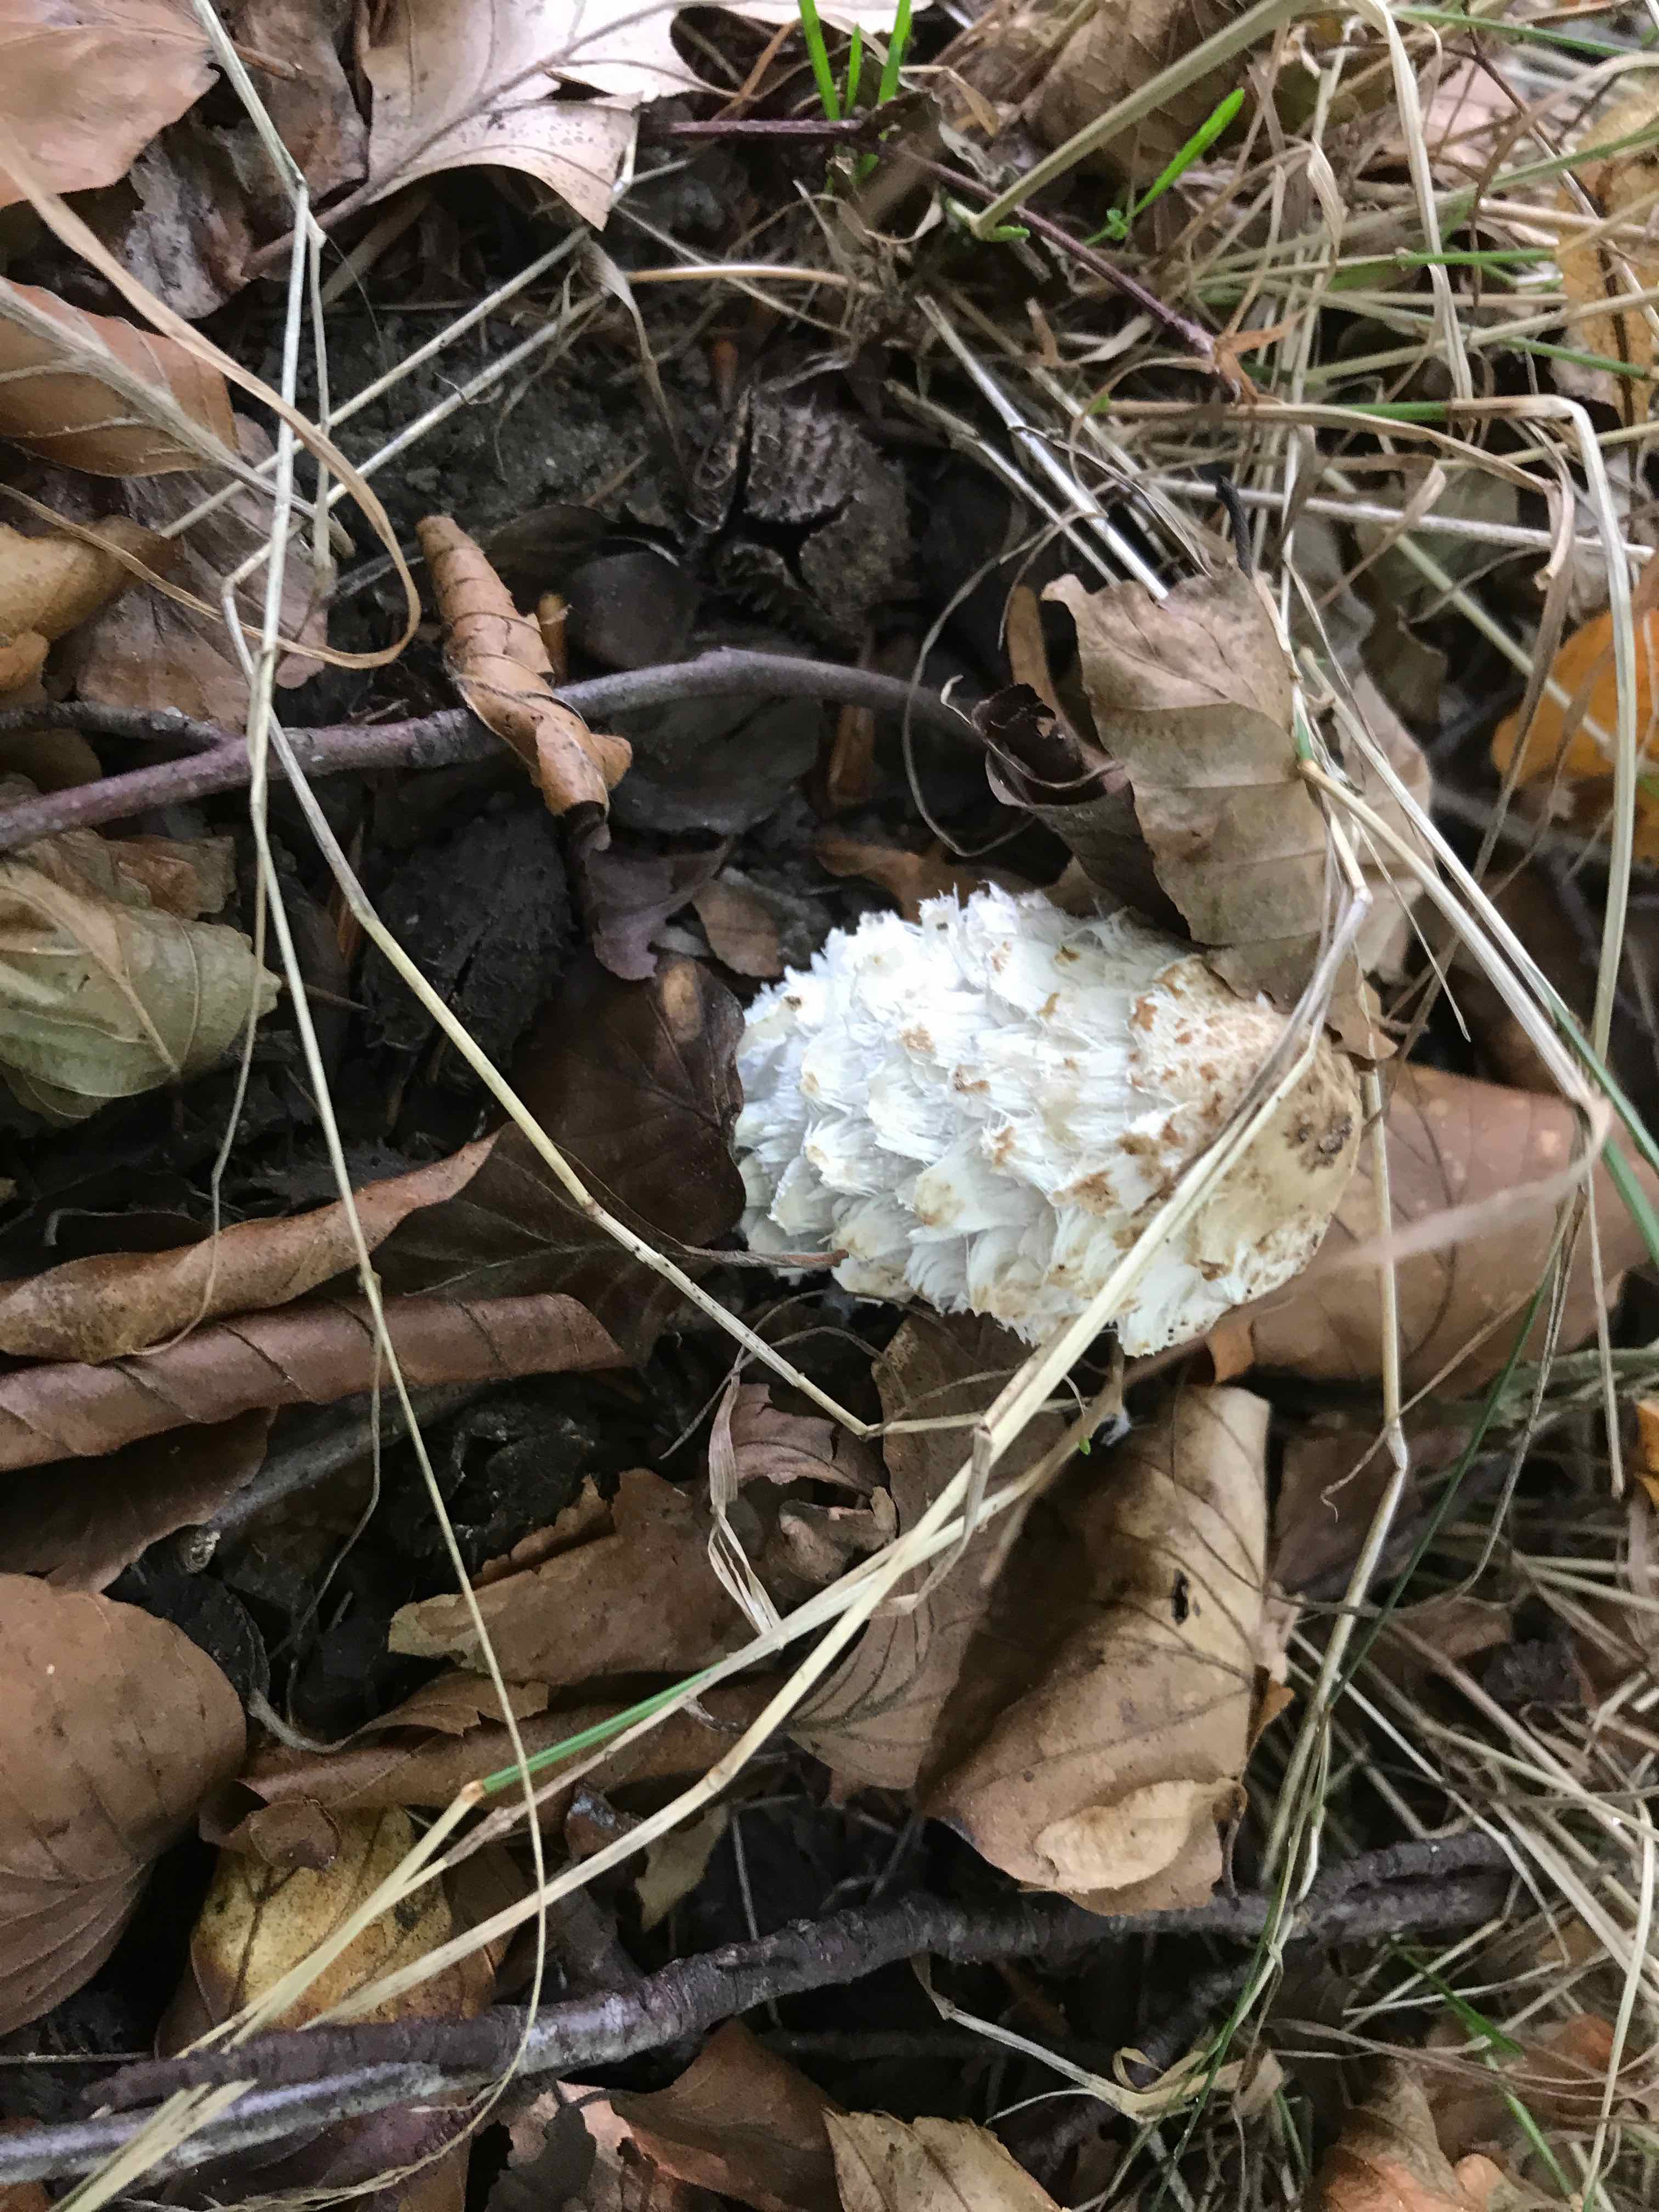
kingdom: Fungi
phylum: Basidiomycota
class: Agaricomycetes
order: Agaricales
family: Agaricaceae
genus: Coprinus
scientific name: Coprinus comatus
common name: stor parykhat
